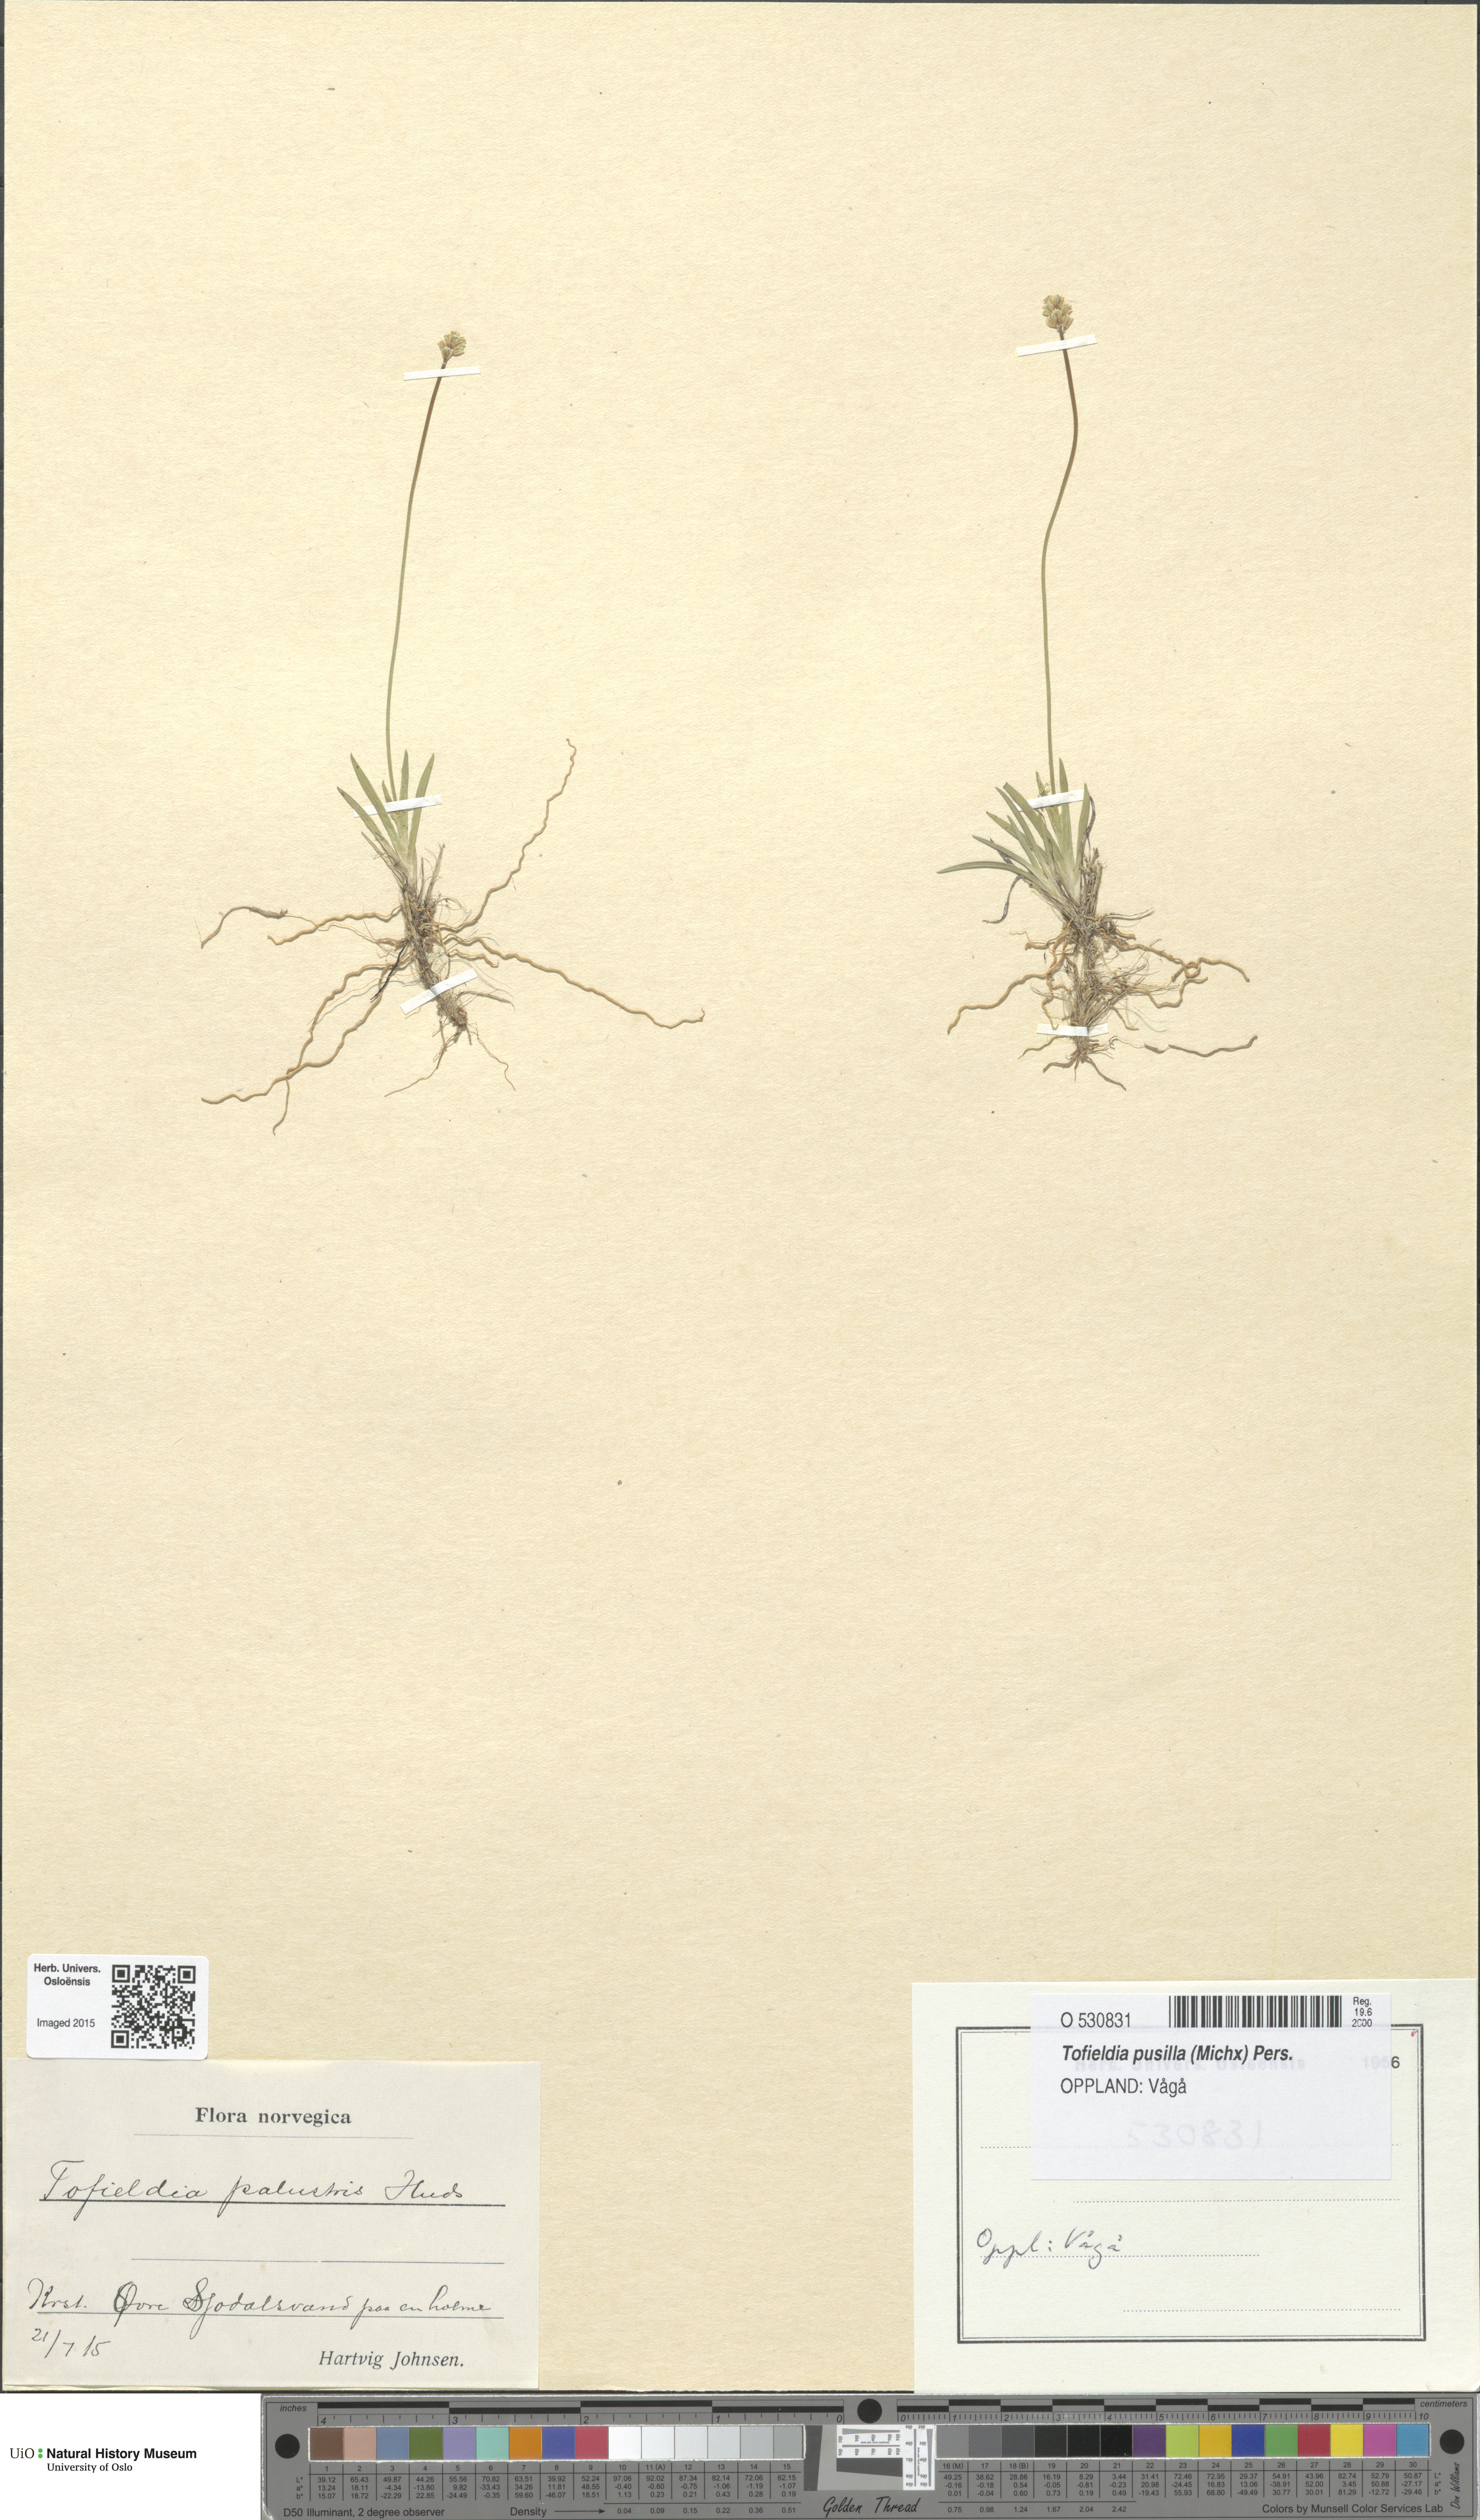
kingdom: Plantae
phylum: Tracheophyta
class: Liliopsida
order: Alismatales
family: Tofieldiaceae
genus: Tofieldia
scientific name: Tofieldia pusilla
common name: Scottish false asphodel
